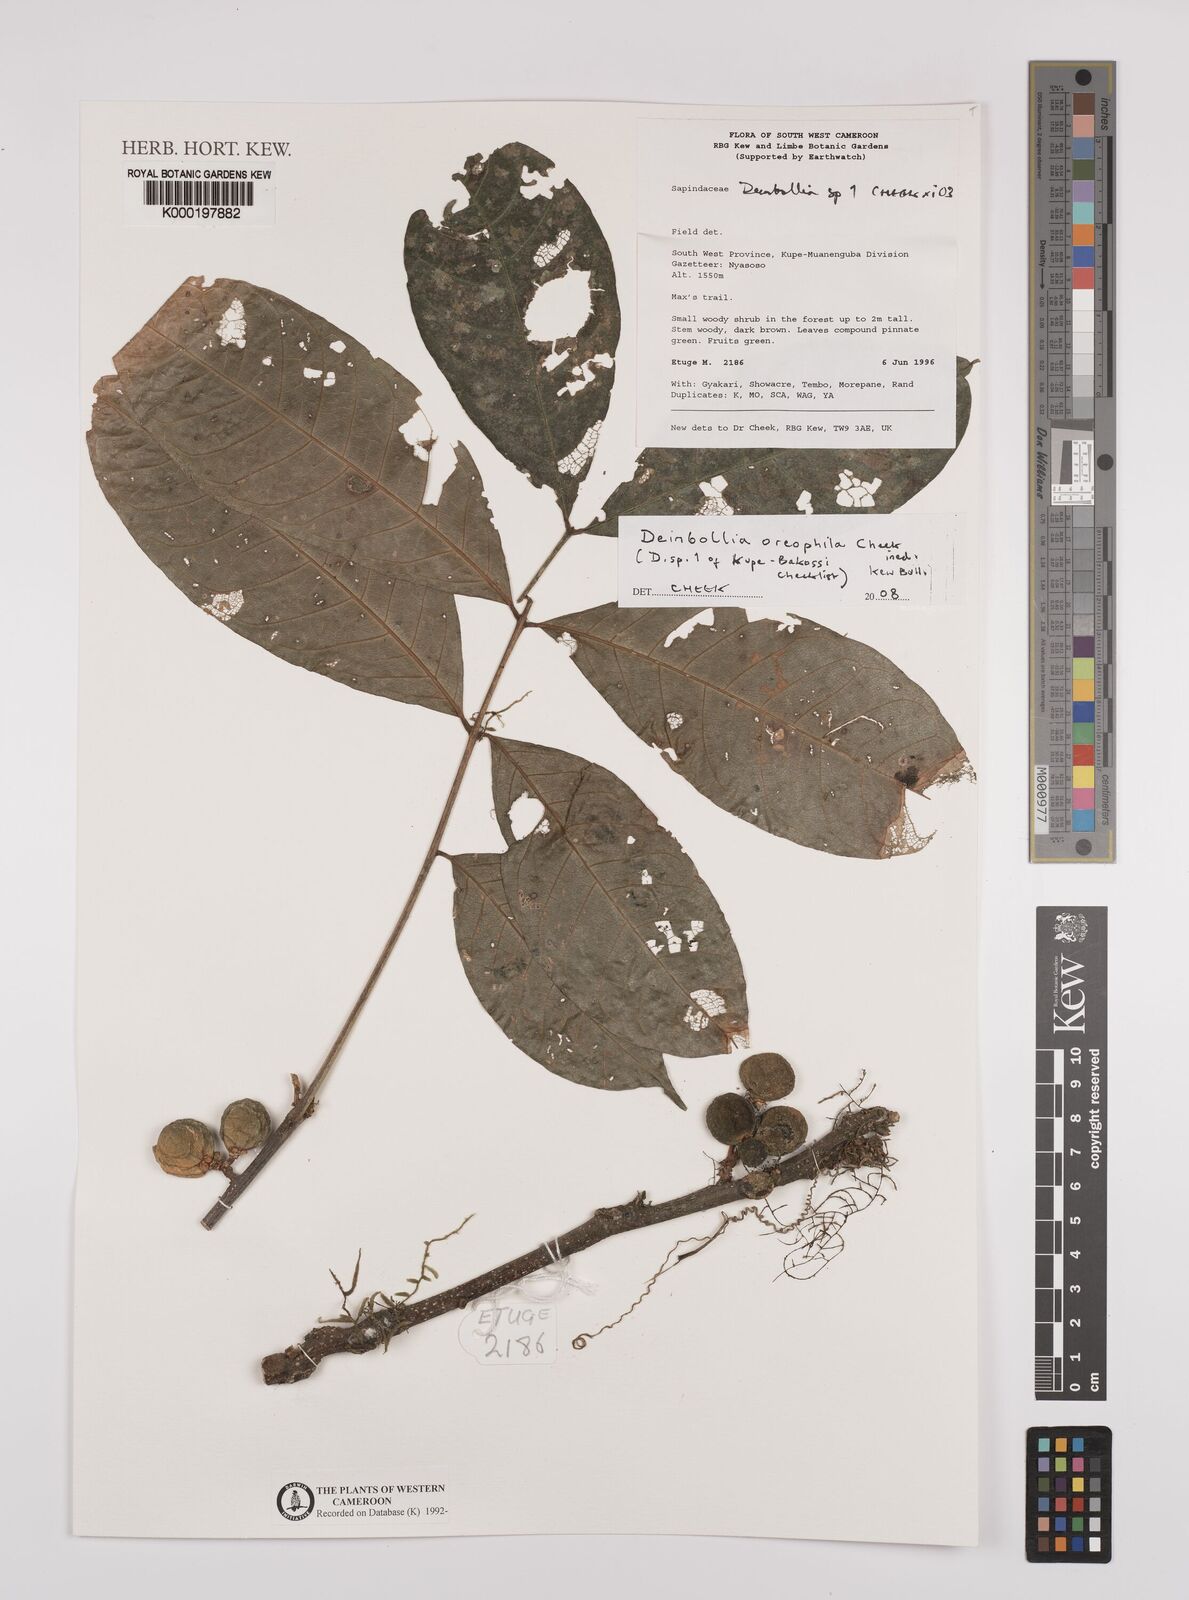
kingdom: Plantae
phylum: Tracheophyta
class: Magnoliopsida
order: Sapindales
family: Sapindaceae
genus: Deinbollia
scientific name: Deinbollia oreophila
